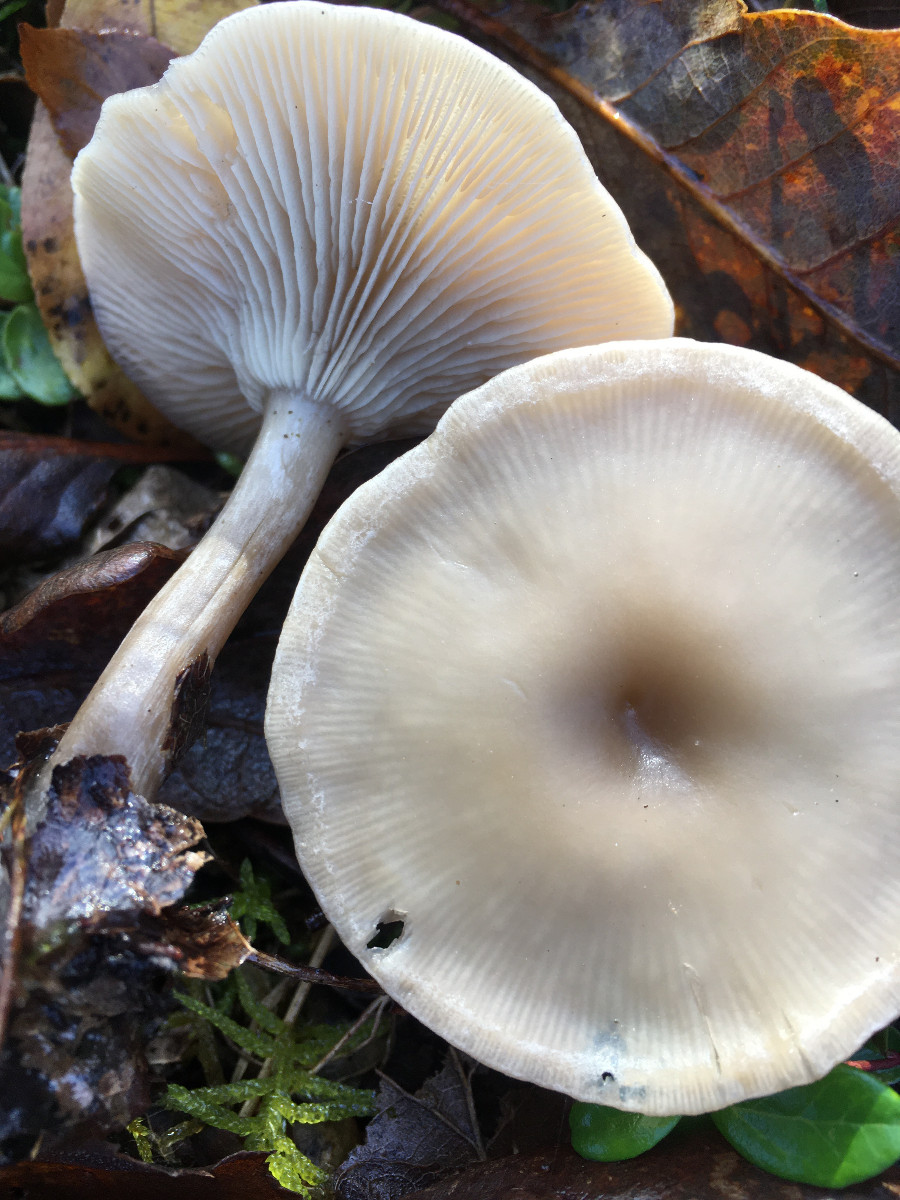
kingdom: Fungi
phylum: Basidiomycota
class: Agaricomycetes
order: Agaricales
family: Tricholomataceae
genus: Clitocybe
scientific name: Clitocybe
